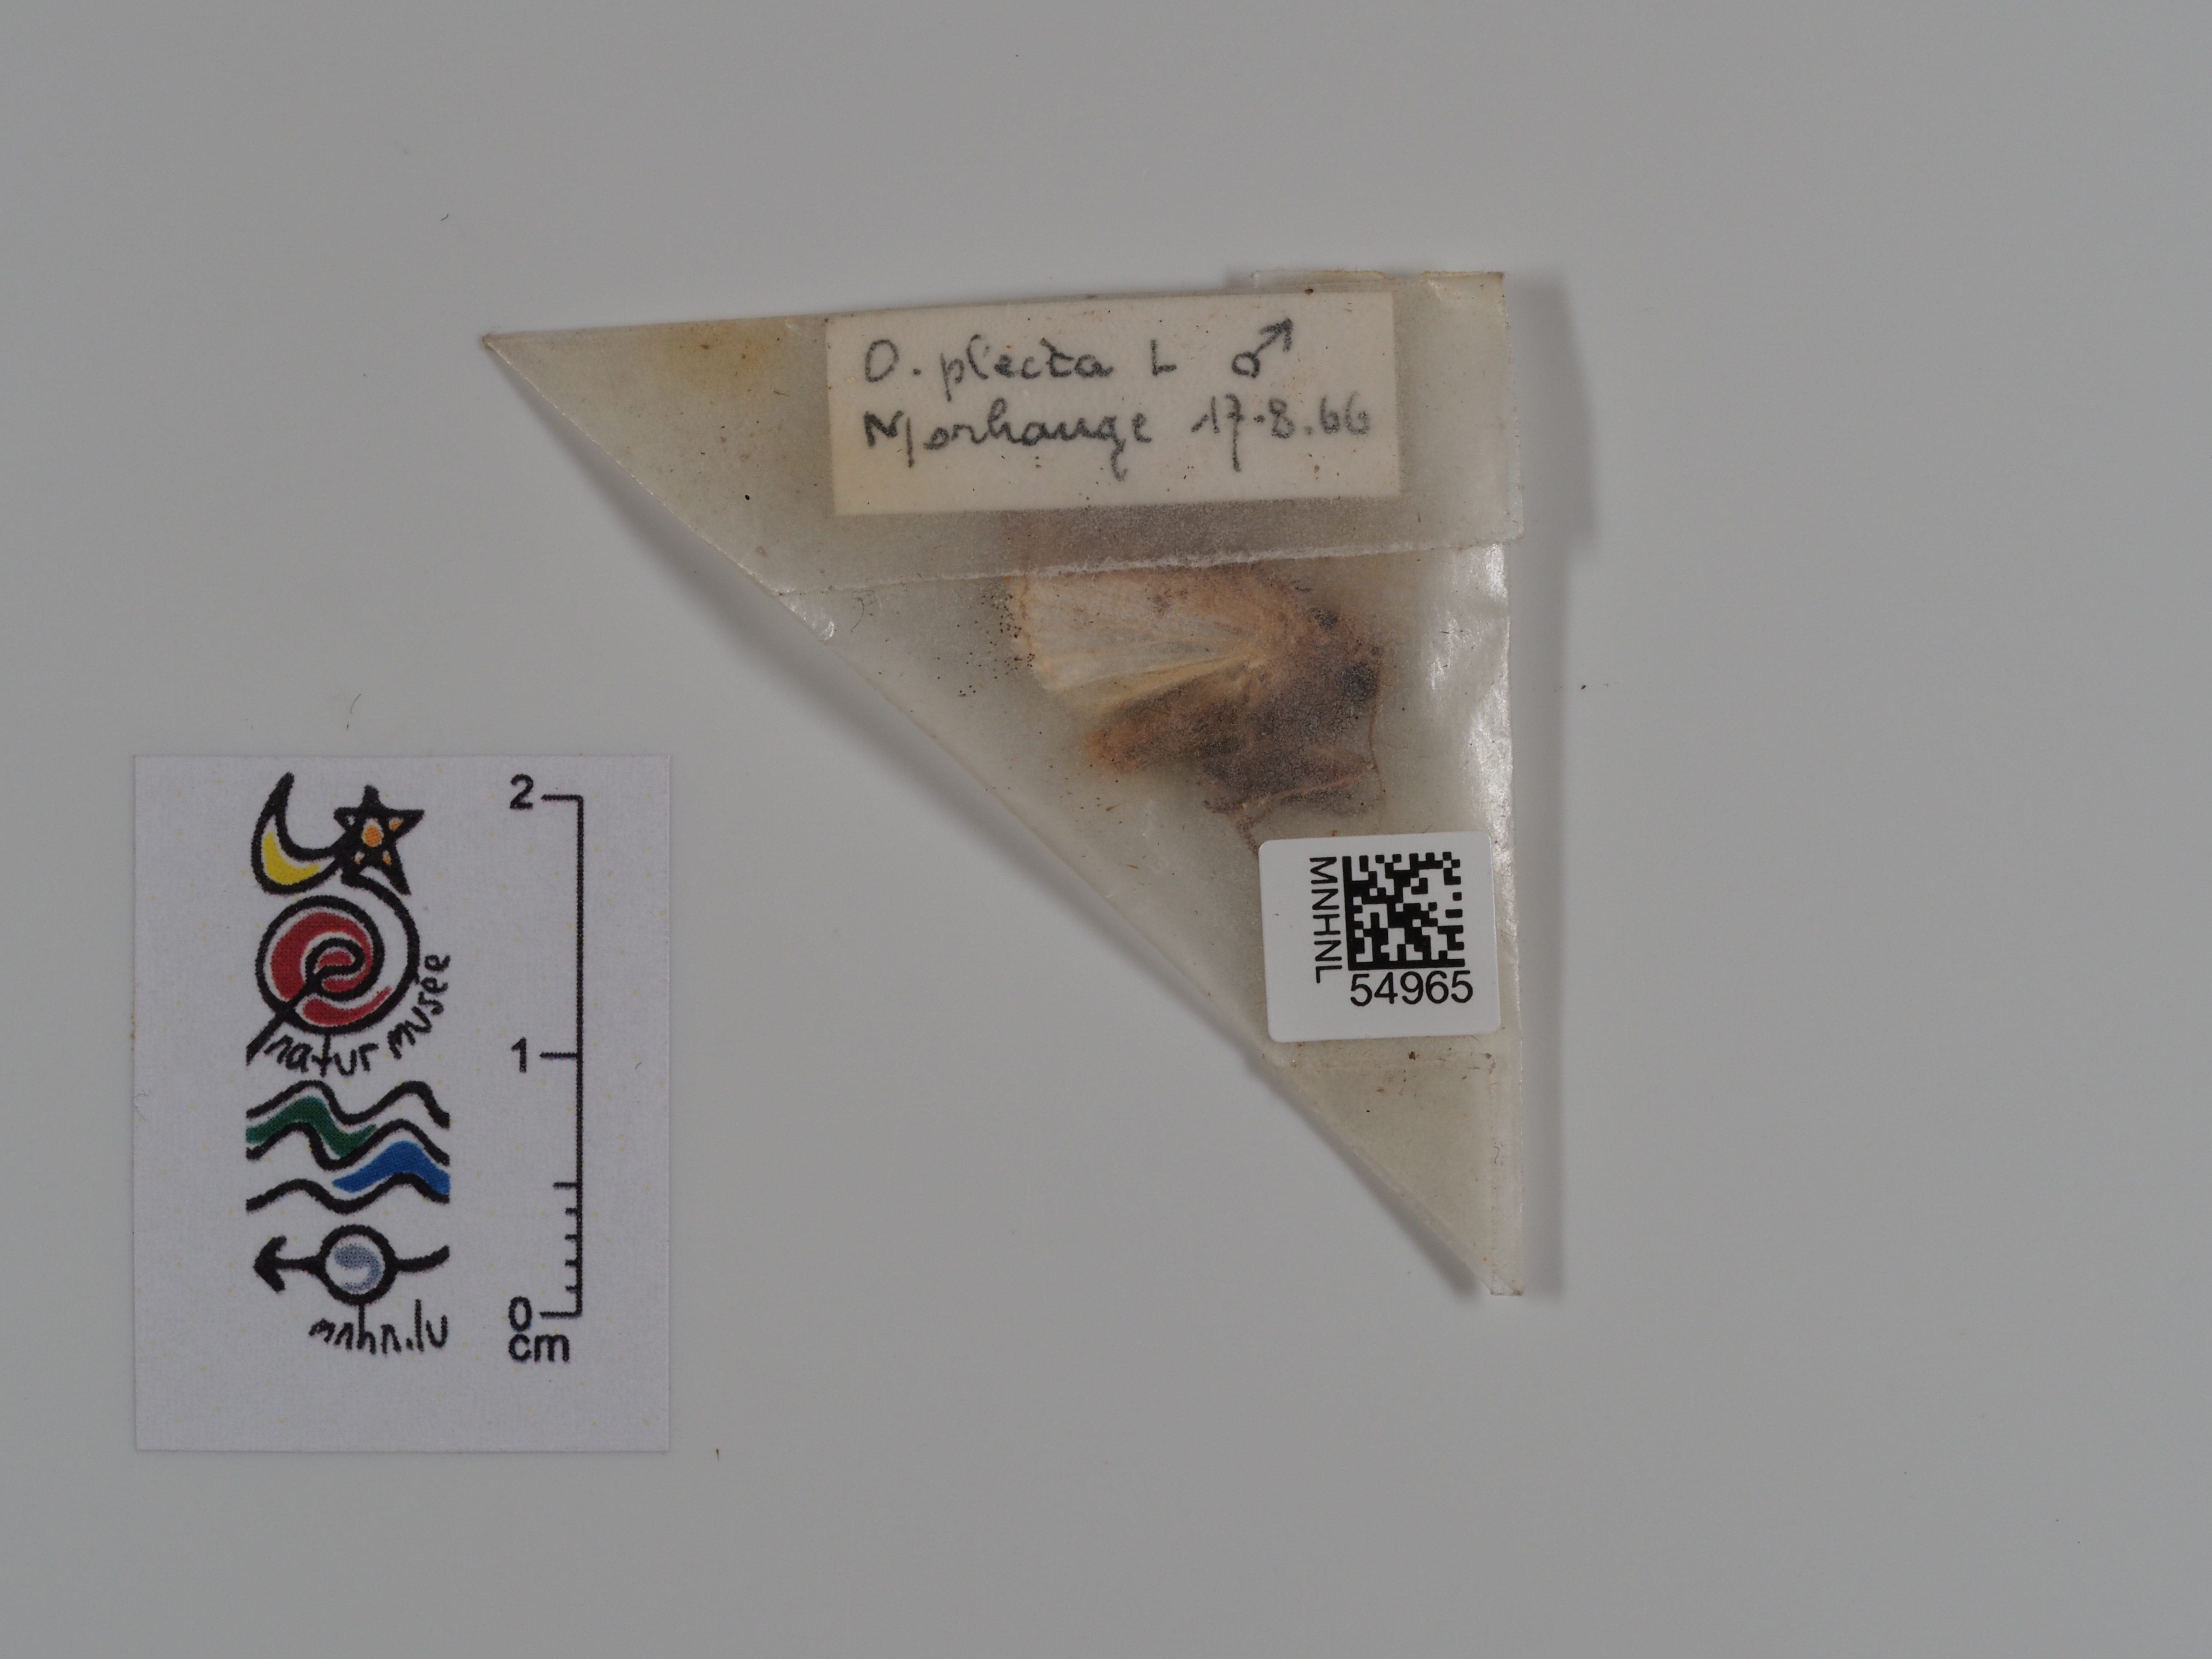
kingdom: Animalia
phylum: Arthropoda
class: Insecta
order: Lepidoptera
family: Noctuidae
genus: Ochropleura
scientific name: Ochropleura plecta
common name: Flame shoulder
